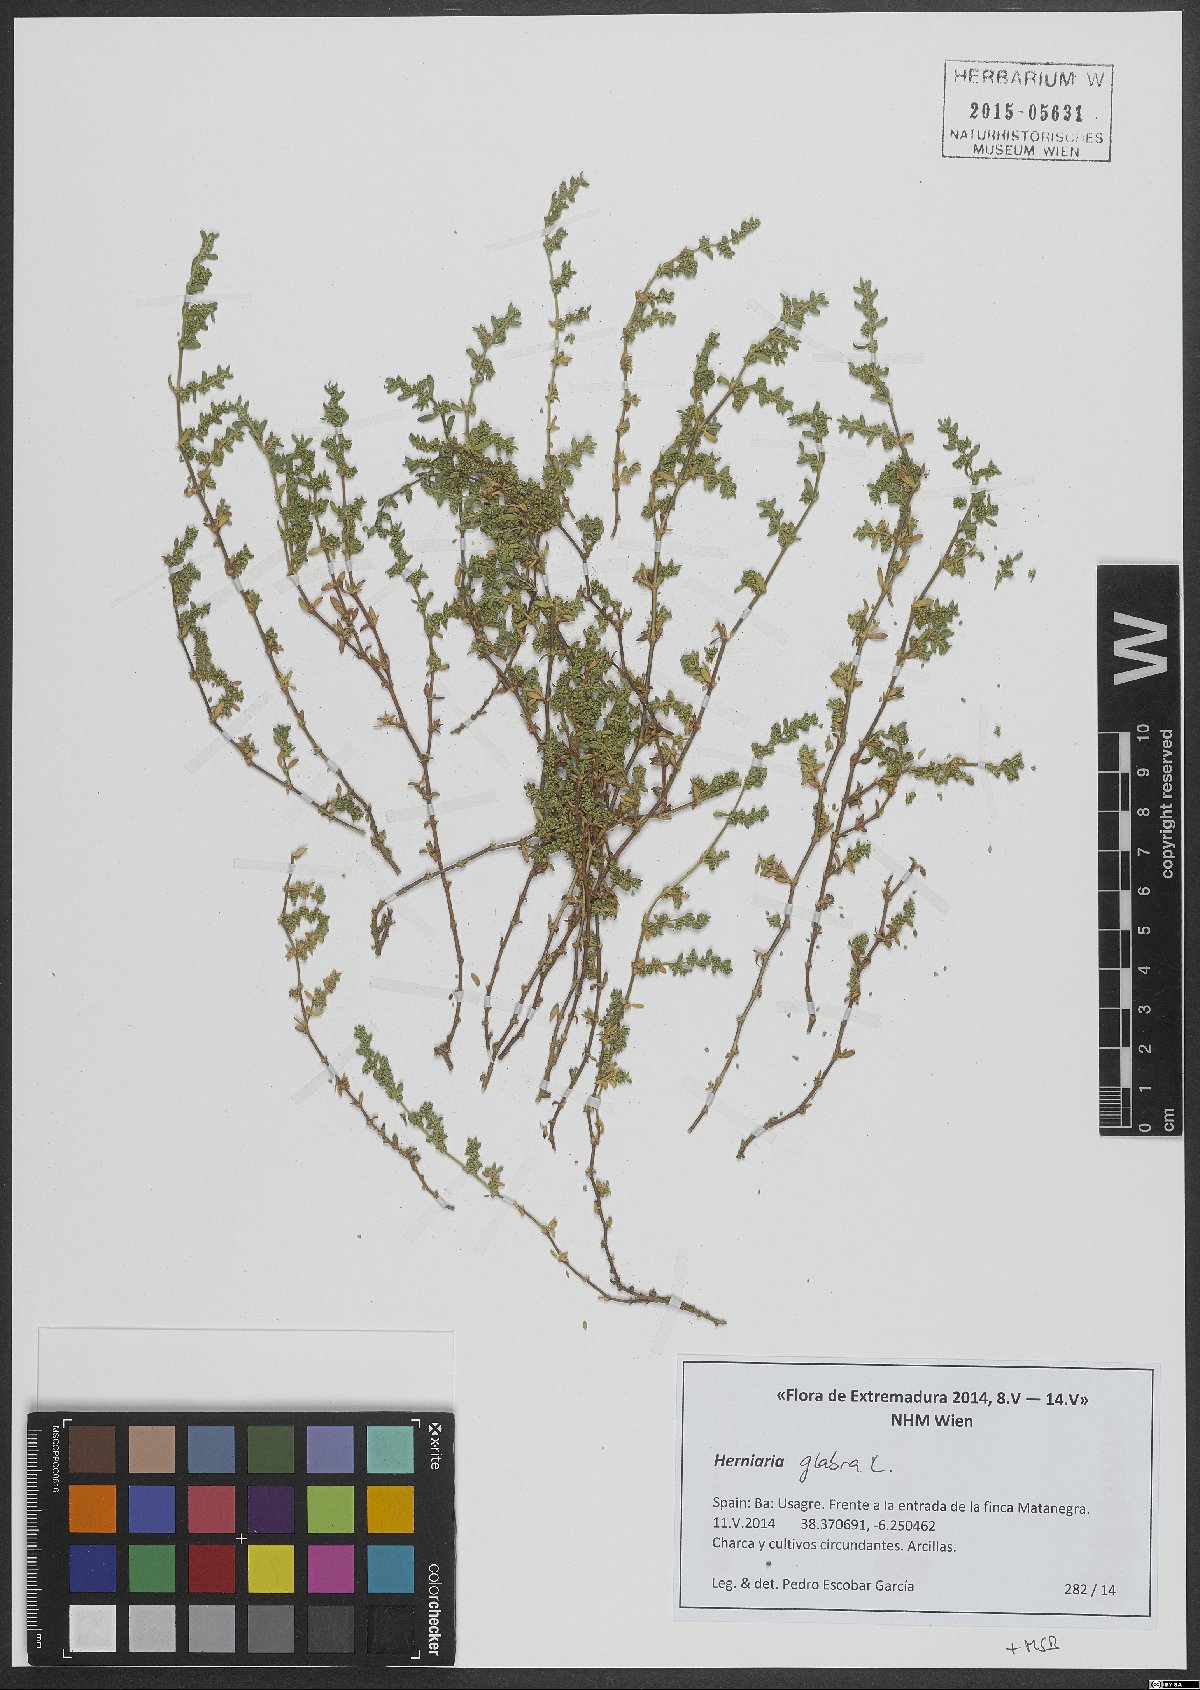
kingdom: Plantae
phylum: Tracheophyta
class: Magnoliopsida
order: Caryophyllales
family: Caryophyllaceae
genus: Herniaria
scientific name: Herniaria glabra
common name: Smooth rupturewort
